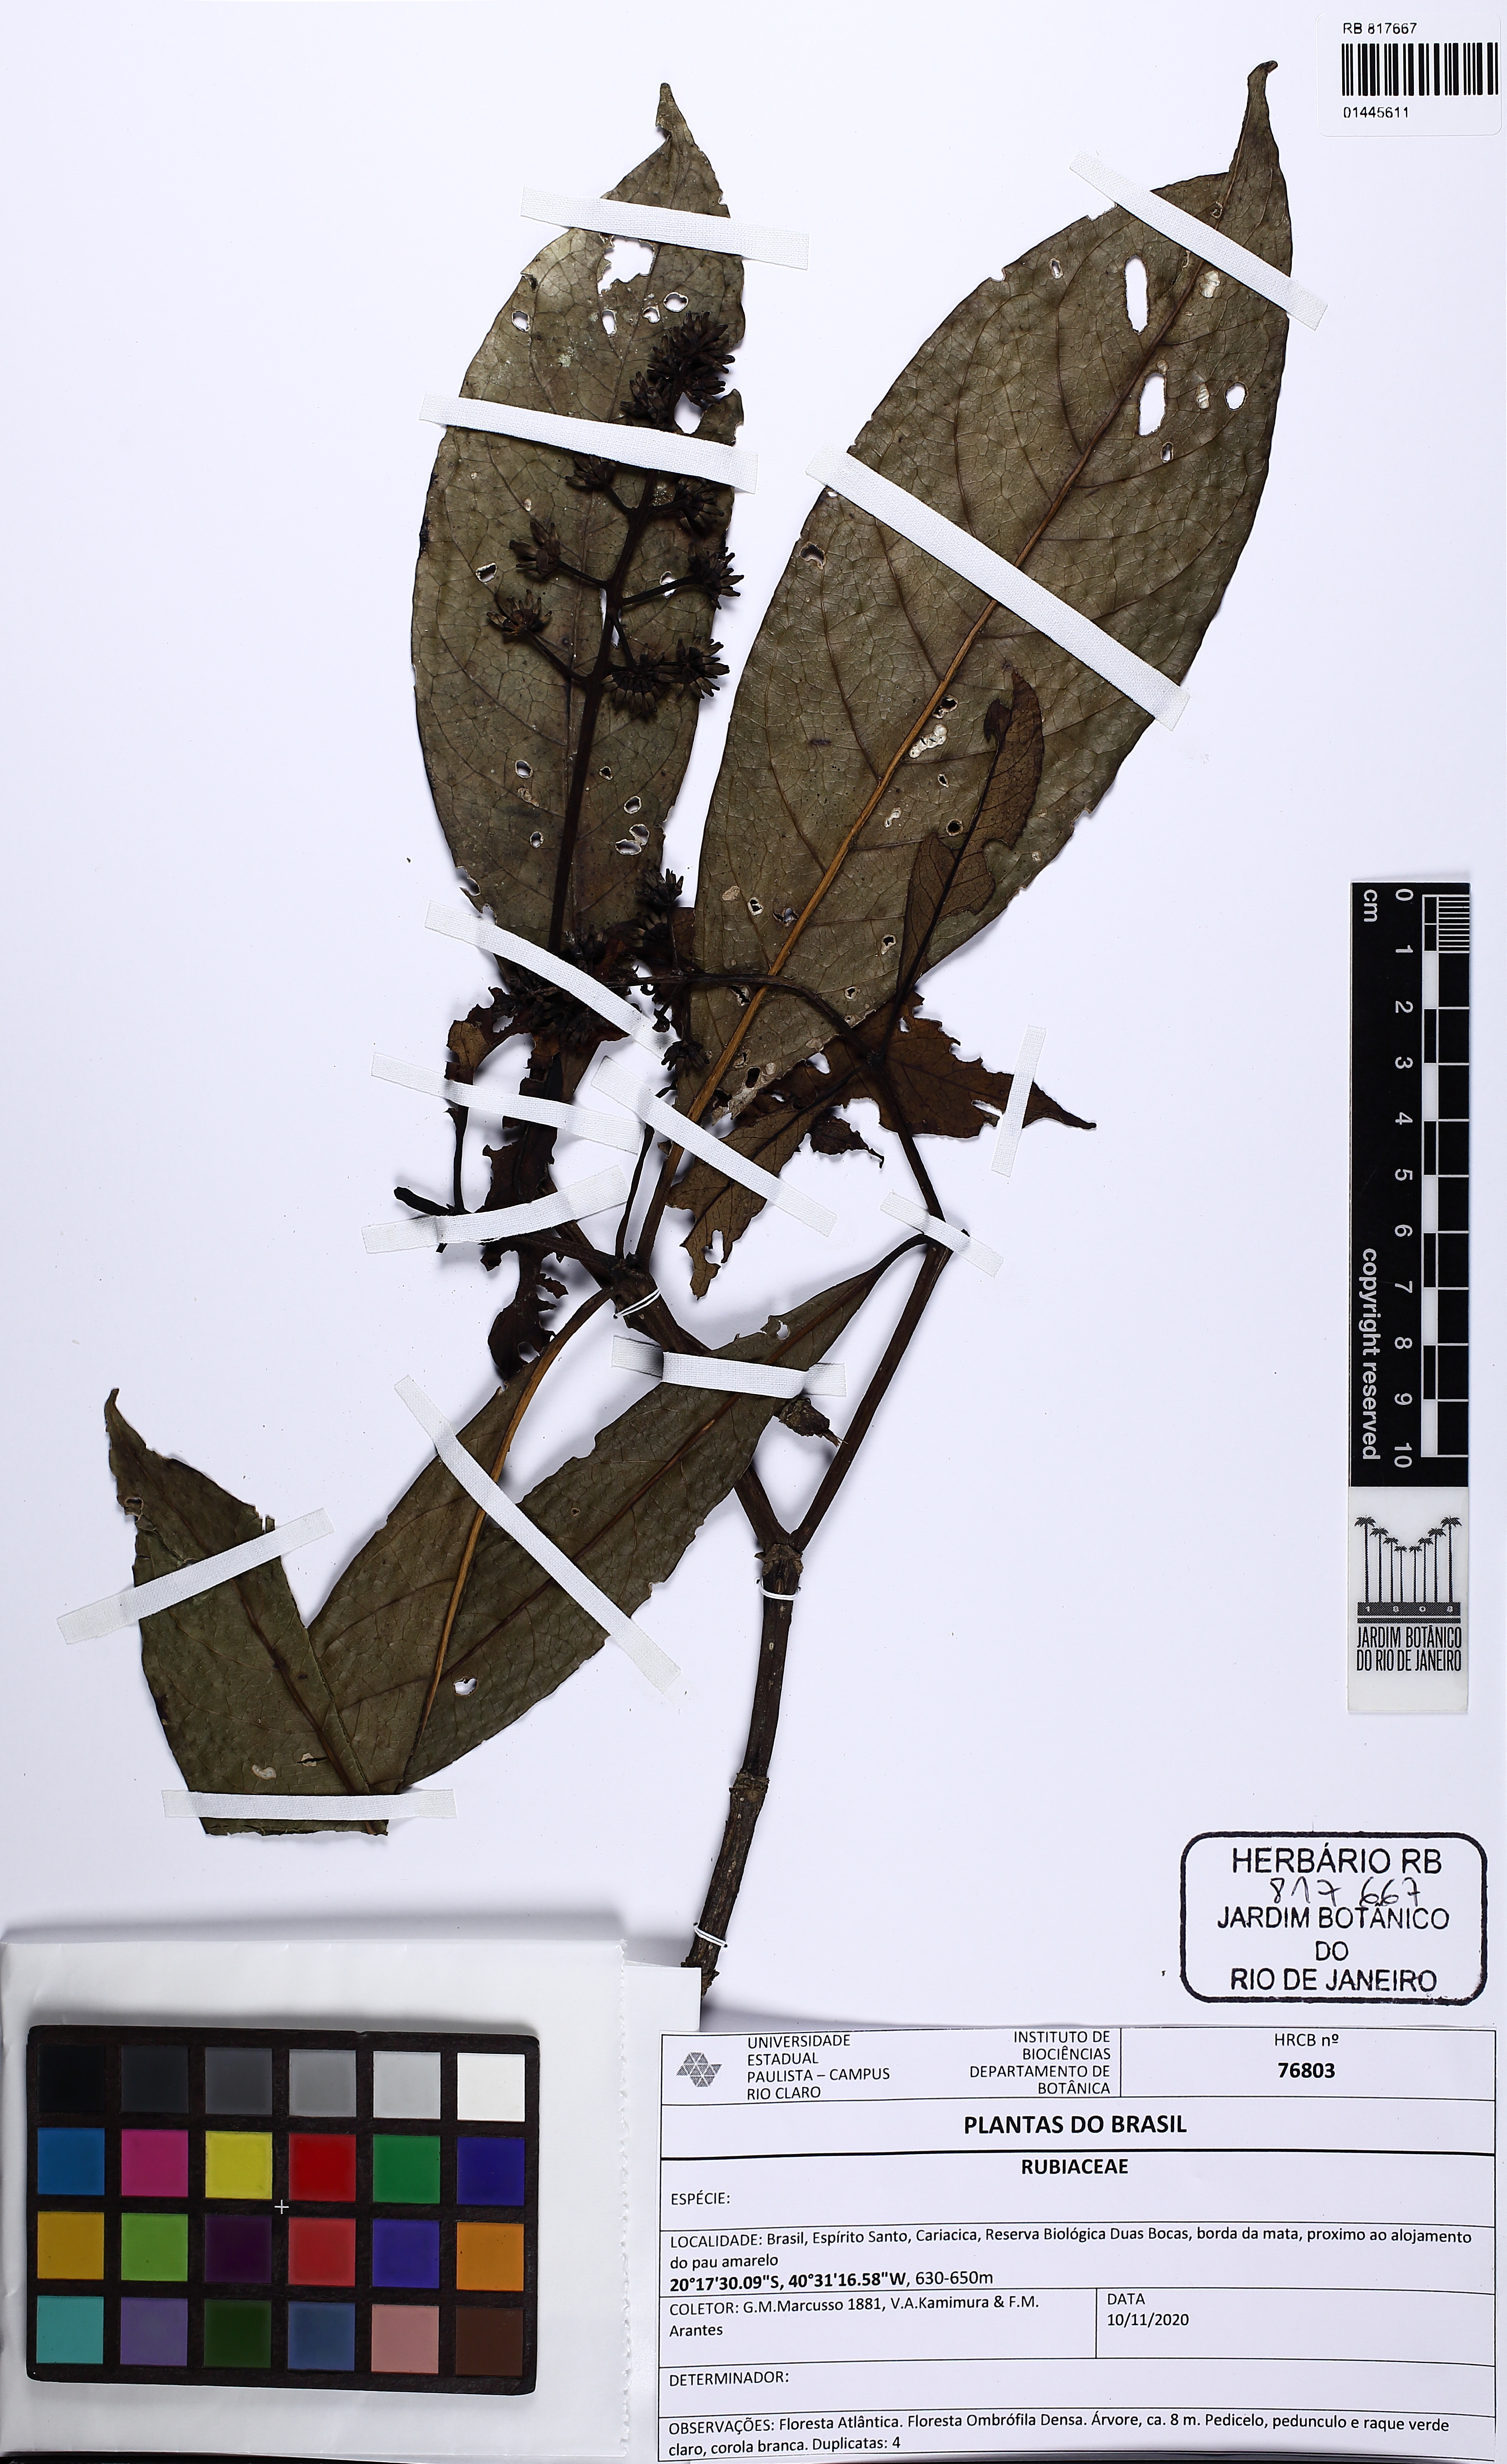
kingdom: Plantae
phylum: Tracheophyta
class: Magnoliopsida
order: Gentianales
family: Rubiaceae
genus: Palicourea
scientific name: Palicourea
